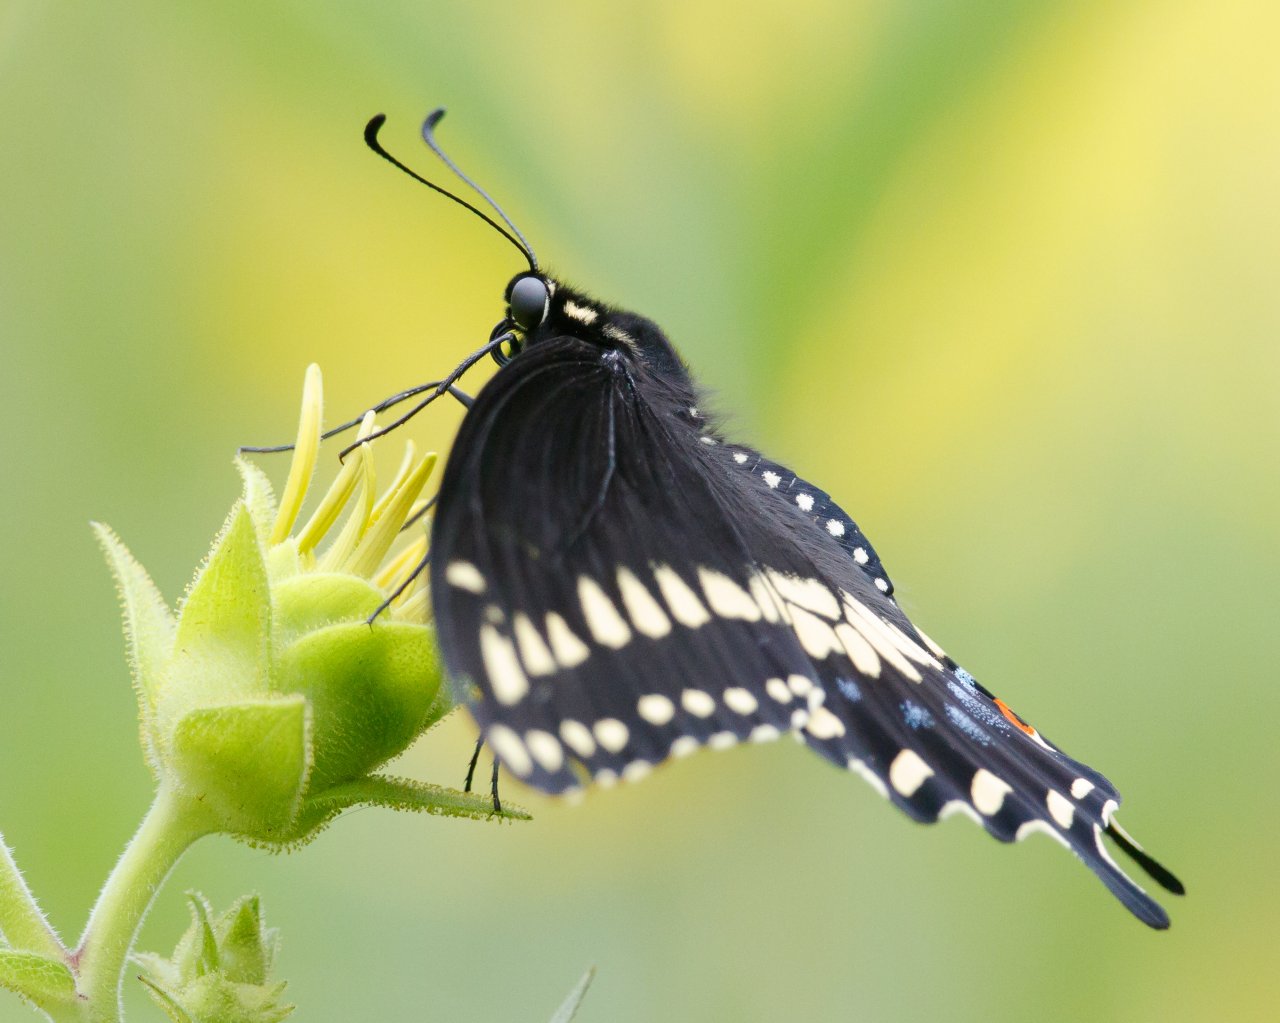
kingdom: Animalia
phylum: Arthropoda
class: Insecta
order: Lepidoptera
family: Papilionidae
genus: Papilio
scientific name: Papilio polyxenes
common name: Black Swallowtail
